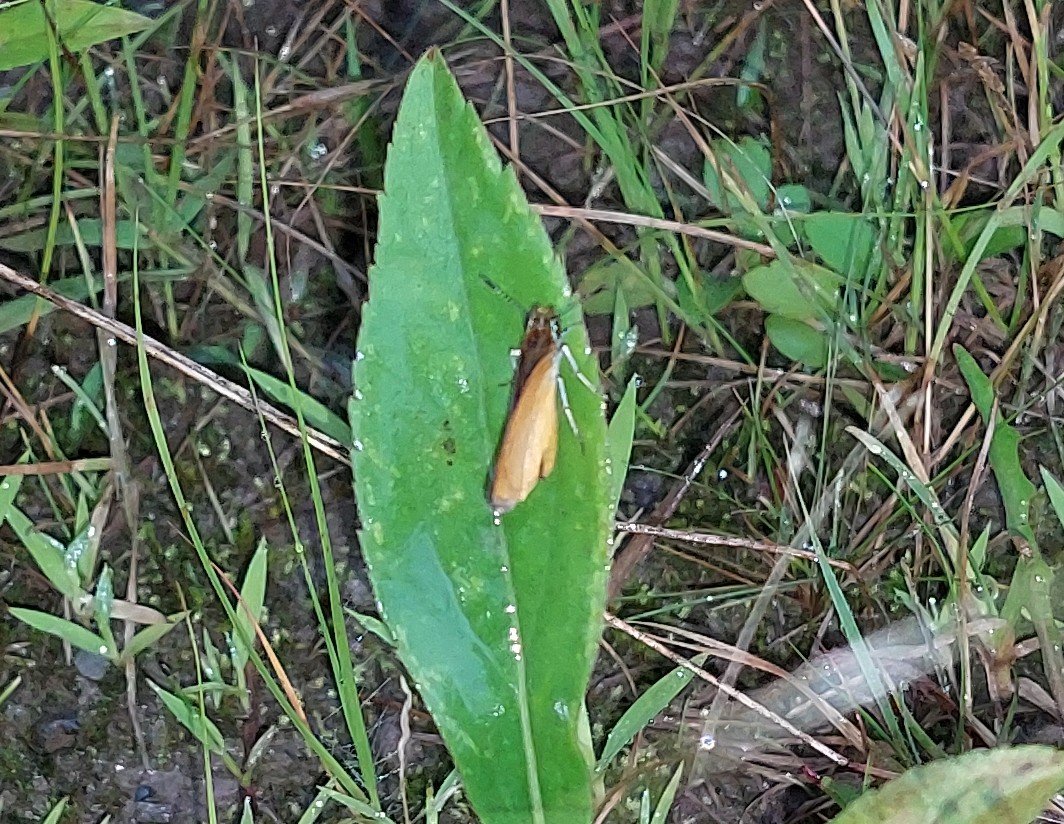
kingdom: Animalia
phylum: Arthropoda
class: Insecta
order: Lepidoptera
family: Hesperiidae
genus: Ancyloxypha
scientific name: Ancyloxypha numitor
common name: Least Skipper
